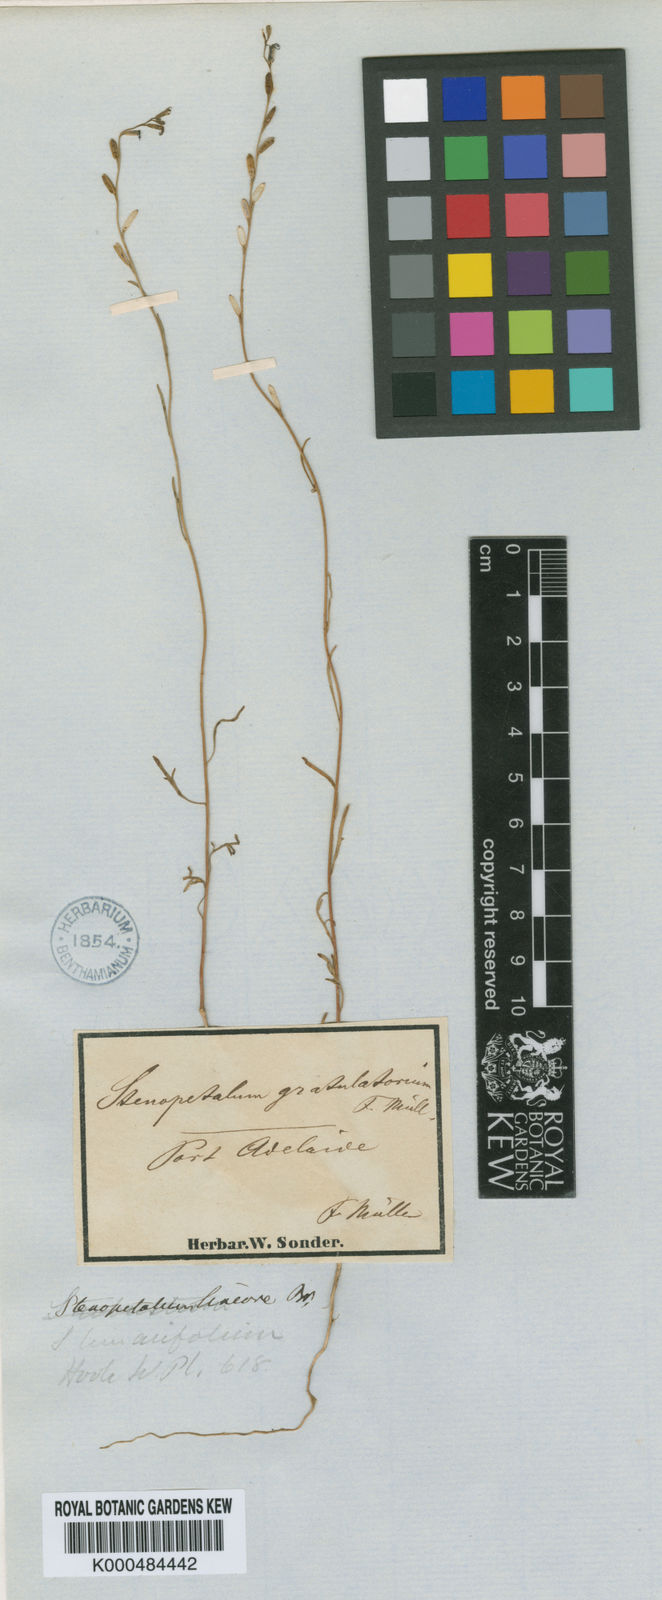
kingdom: Plantae
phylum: Tracheophyta
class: Magnoliopsida
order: Brassicales
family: Brassicaceae
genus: Stenopetalum
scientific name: Stenopetalum lineare
